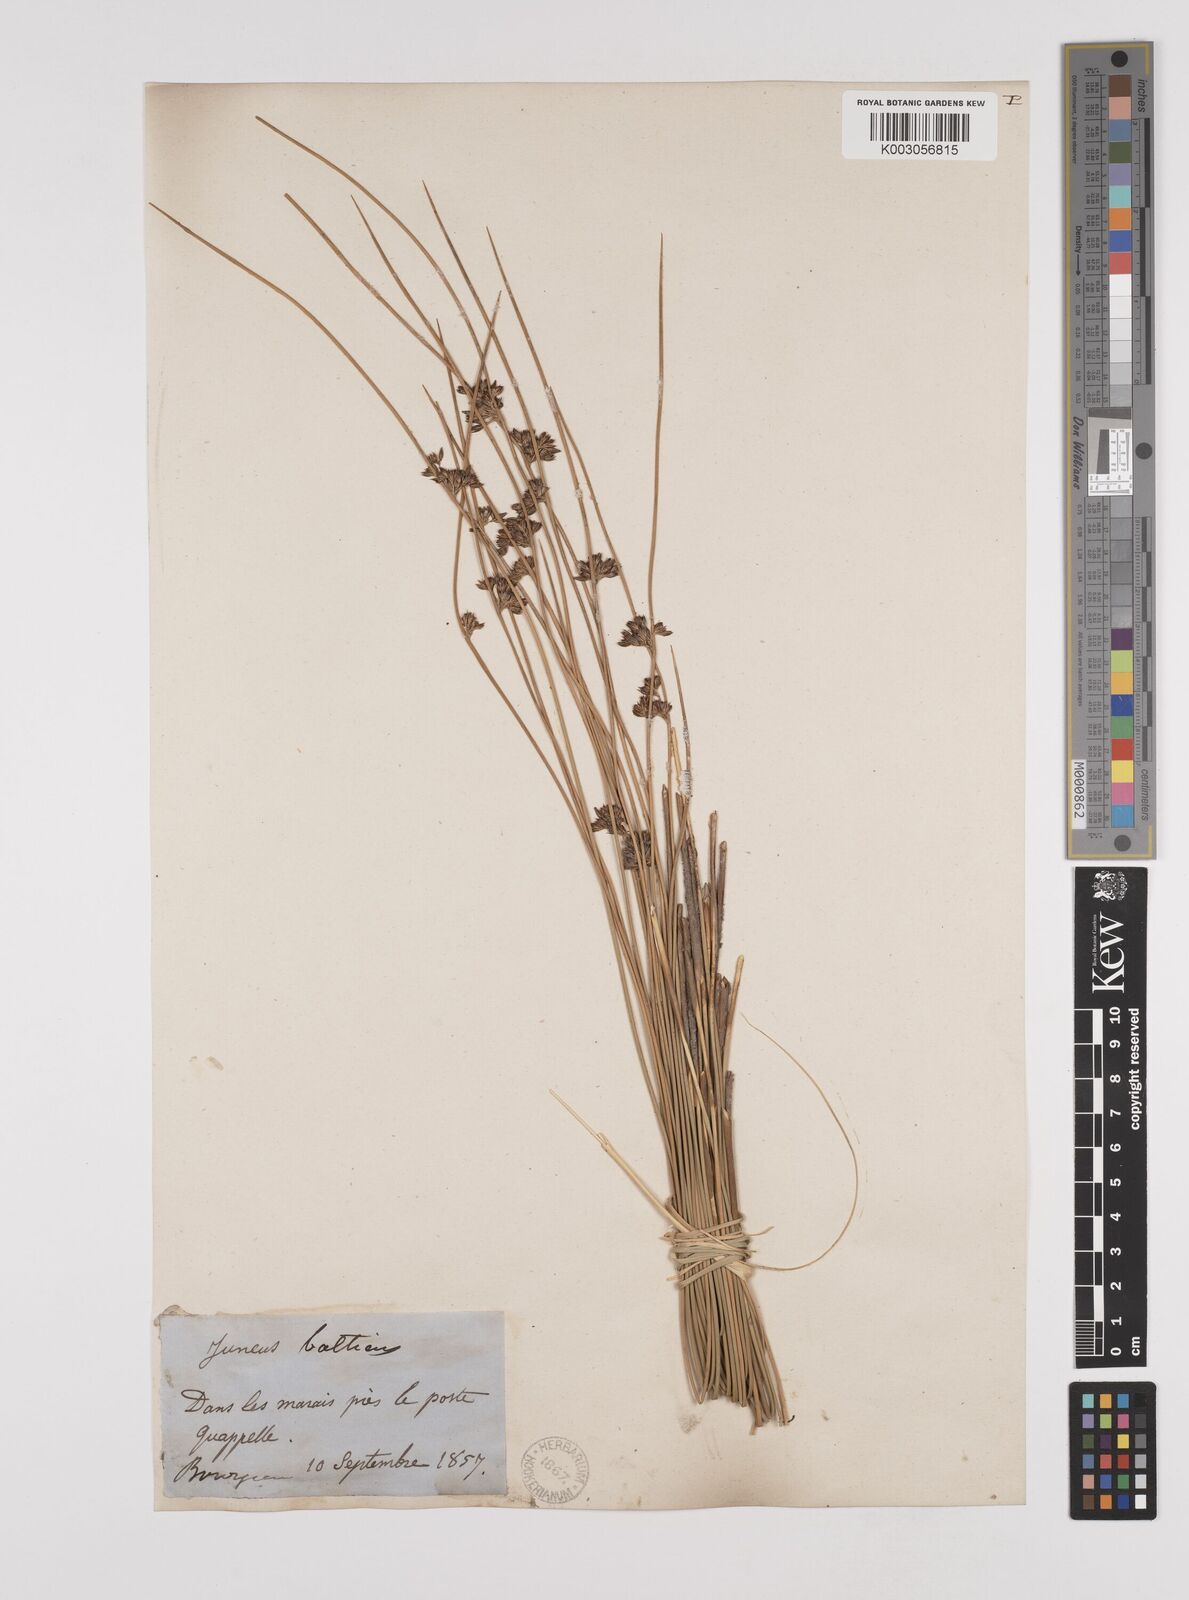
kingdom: Plantae
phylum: Tracheophyta
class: Liliopsida
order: Poales
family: Juncaceae
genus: Juncus
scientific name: Juncus balticus
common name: Baltic rush
